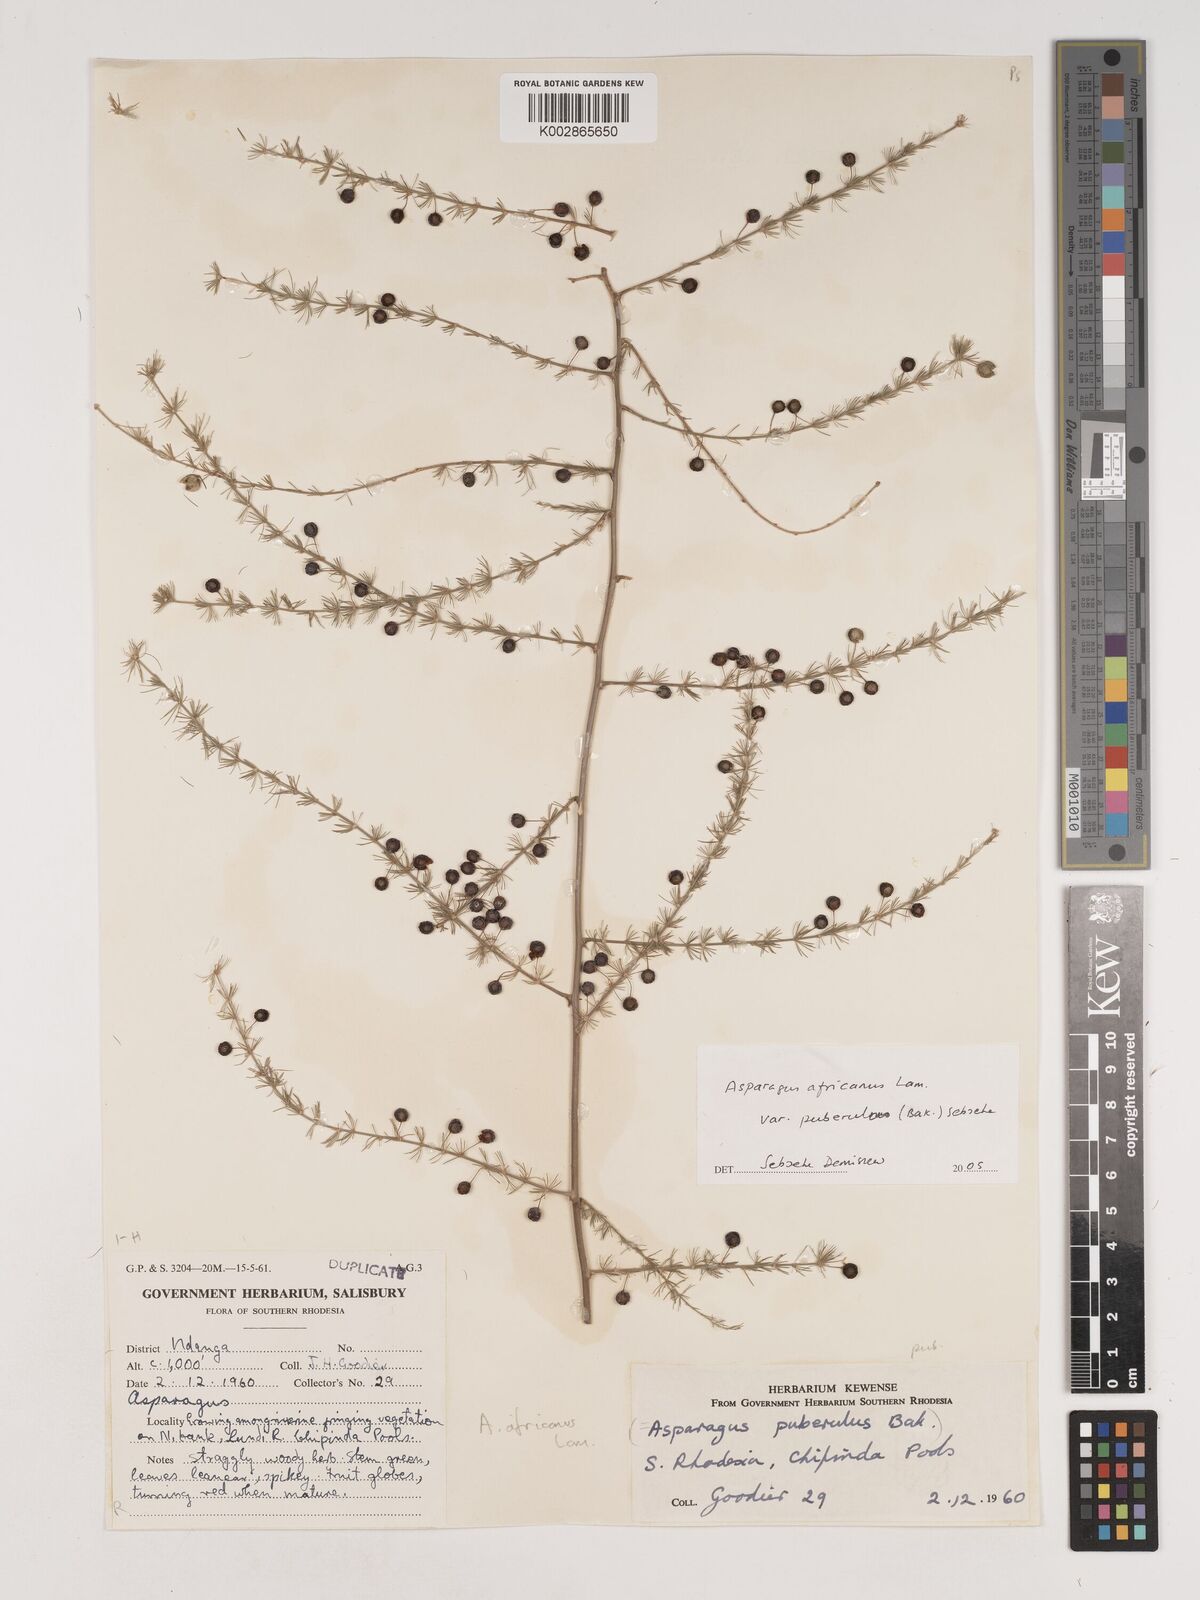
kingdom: Plantae
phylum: Tracheophyta
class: Liliopsida
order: Asparagales
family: Asparagaceae
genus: Asparagus
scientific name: Asparagus africanus
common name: Asparagus-fern
